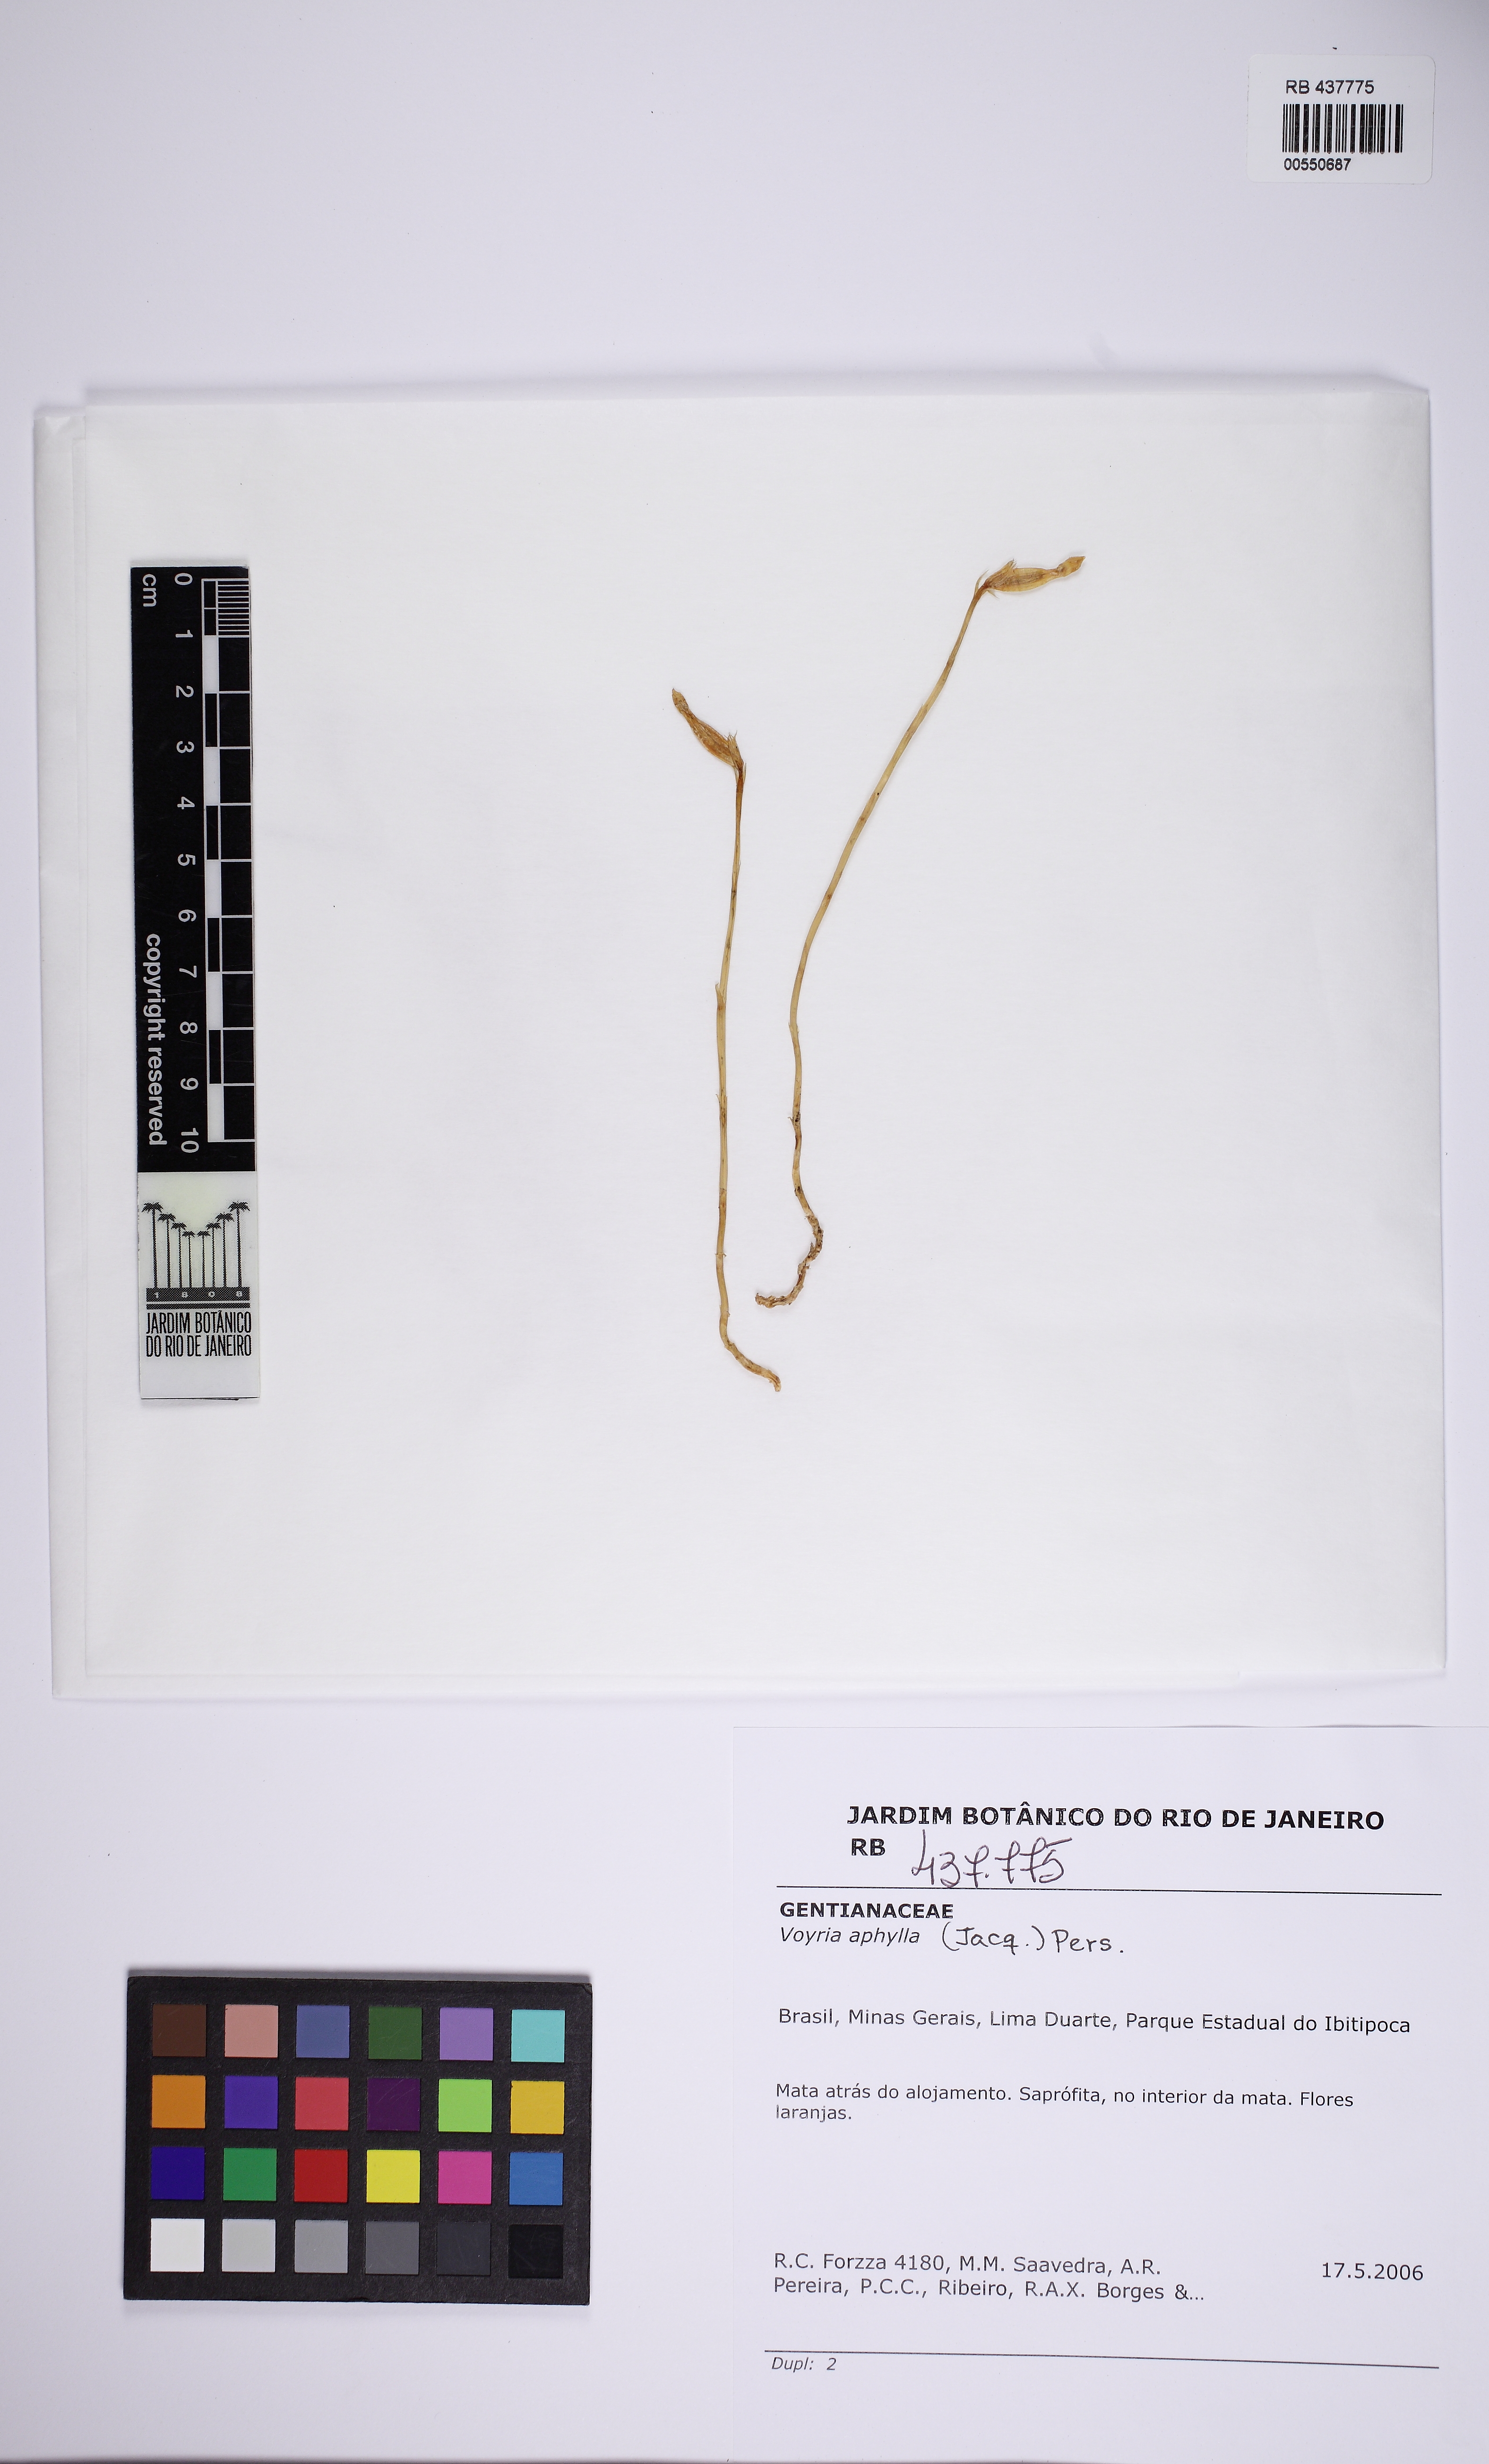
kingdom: Plantae
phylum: Tracheophyta
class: Magnoliopsida
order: Gentianales
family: Gentianaceae
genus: Voyria
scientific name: Voyria aphylla
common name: Leafless ghost plant
